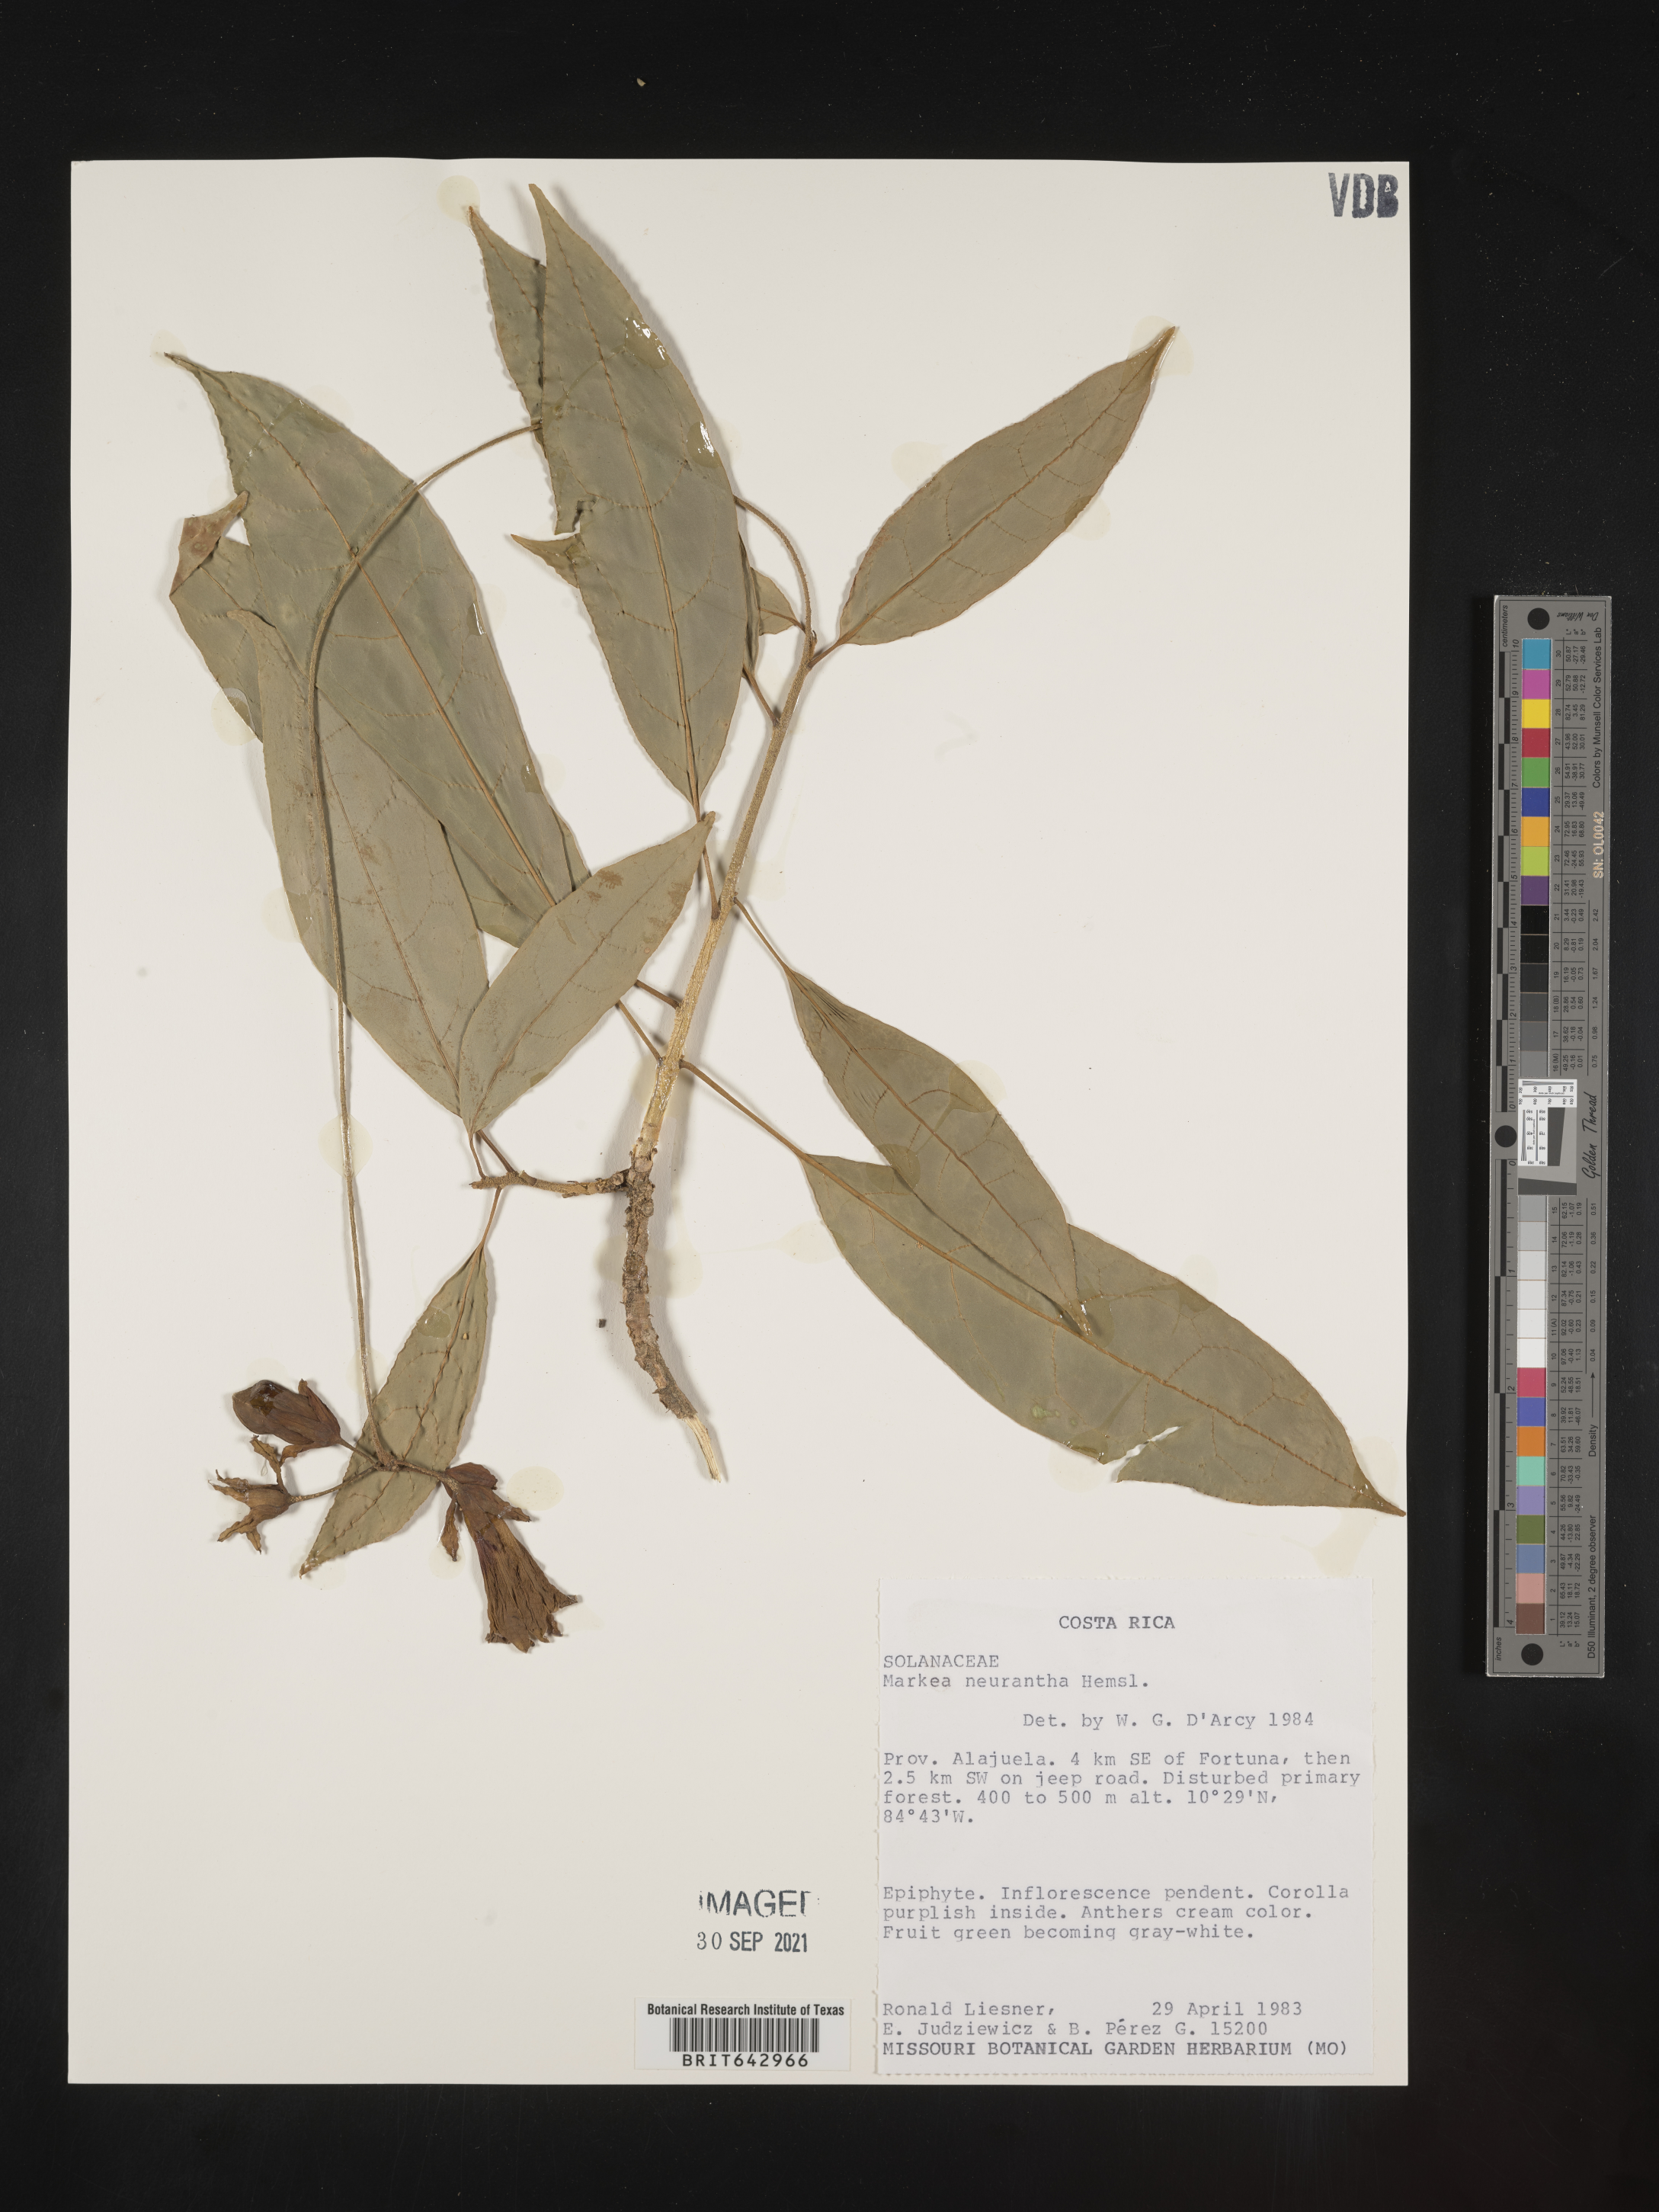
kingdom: Plantae
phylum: Tracheophyta
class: Magnoliopsida
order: Solanales
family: Solanaceae
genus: Markea
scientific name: Markea
